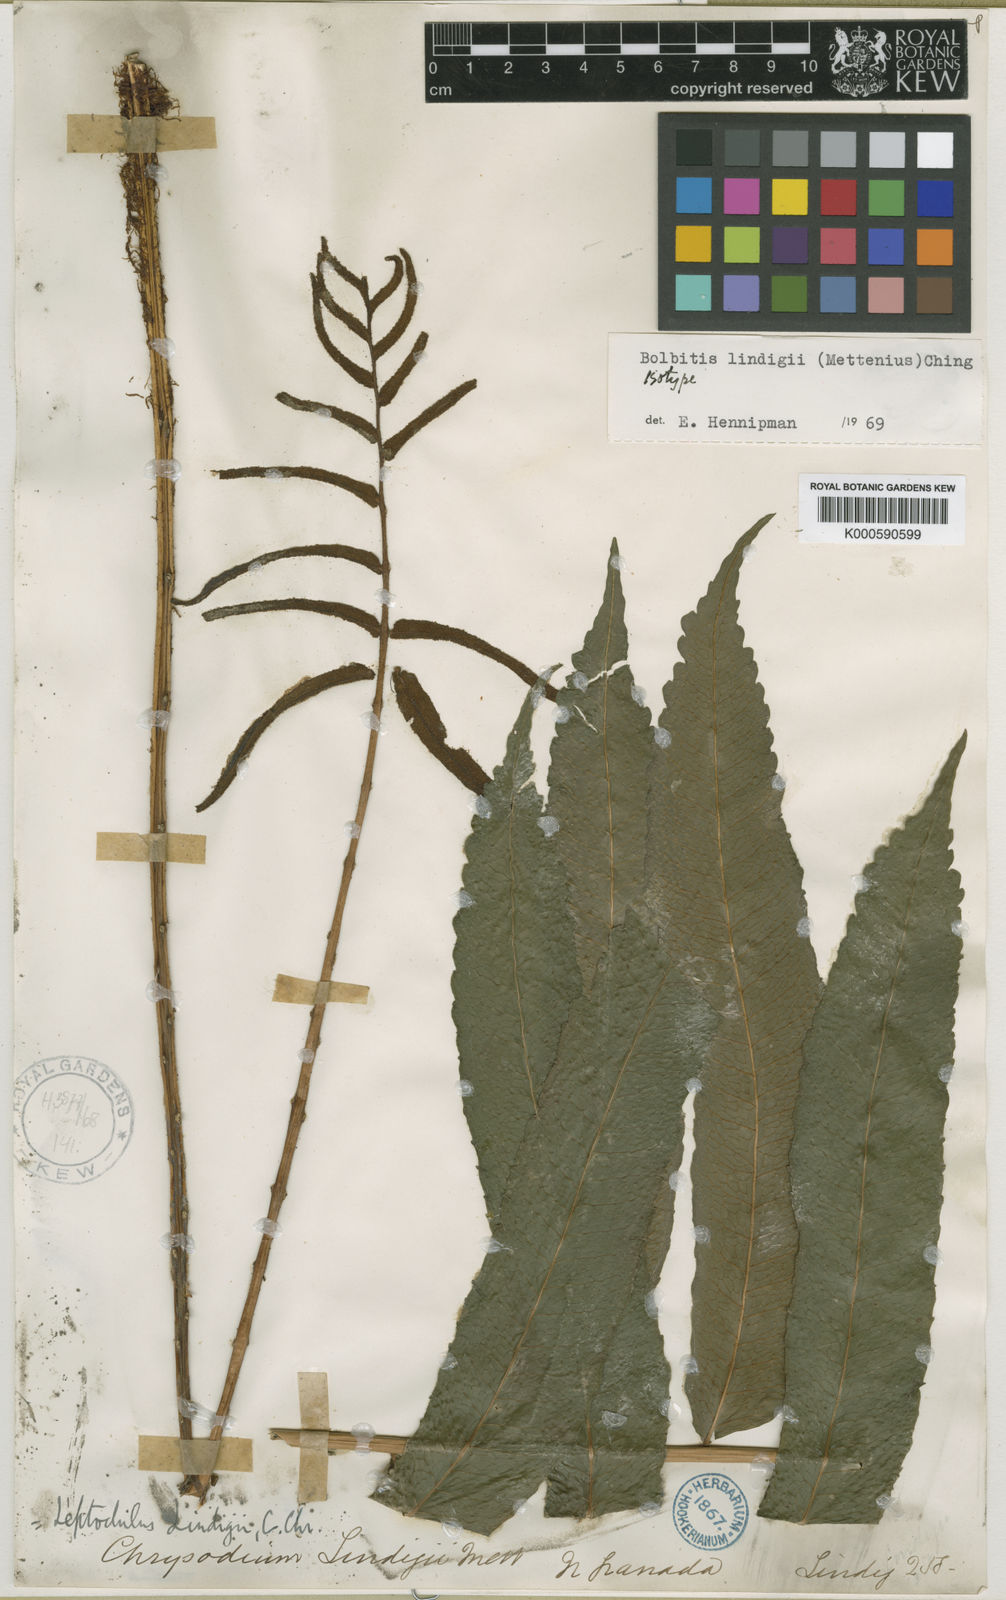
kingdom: Plantae
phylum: Tracheophyta
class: Polypodiopsida
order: Polypodiales
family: Dryopteridaceae
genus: Bolbitis
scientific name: Bolbitis
